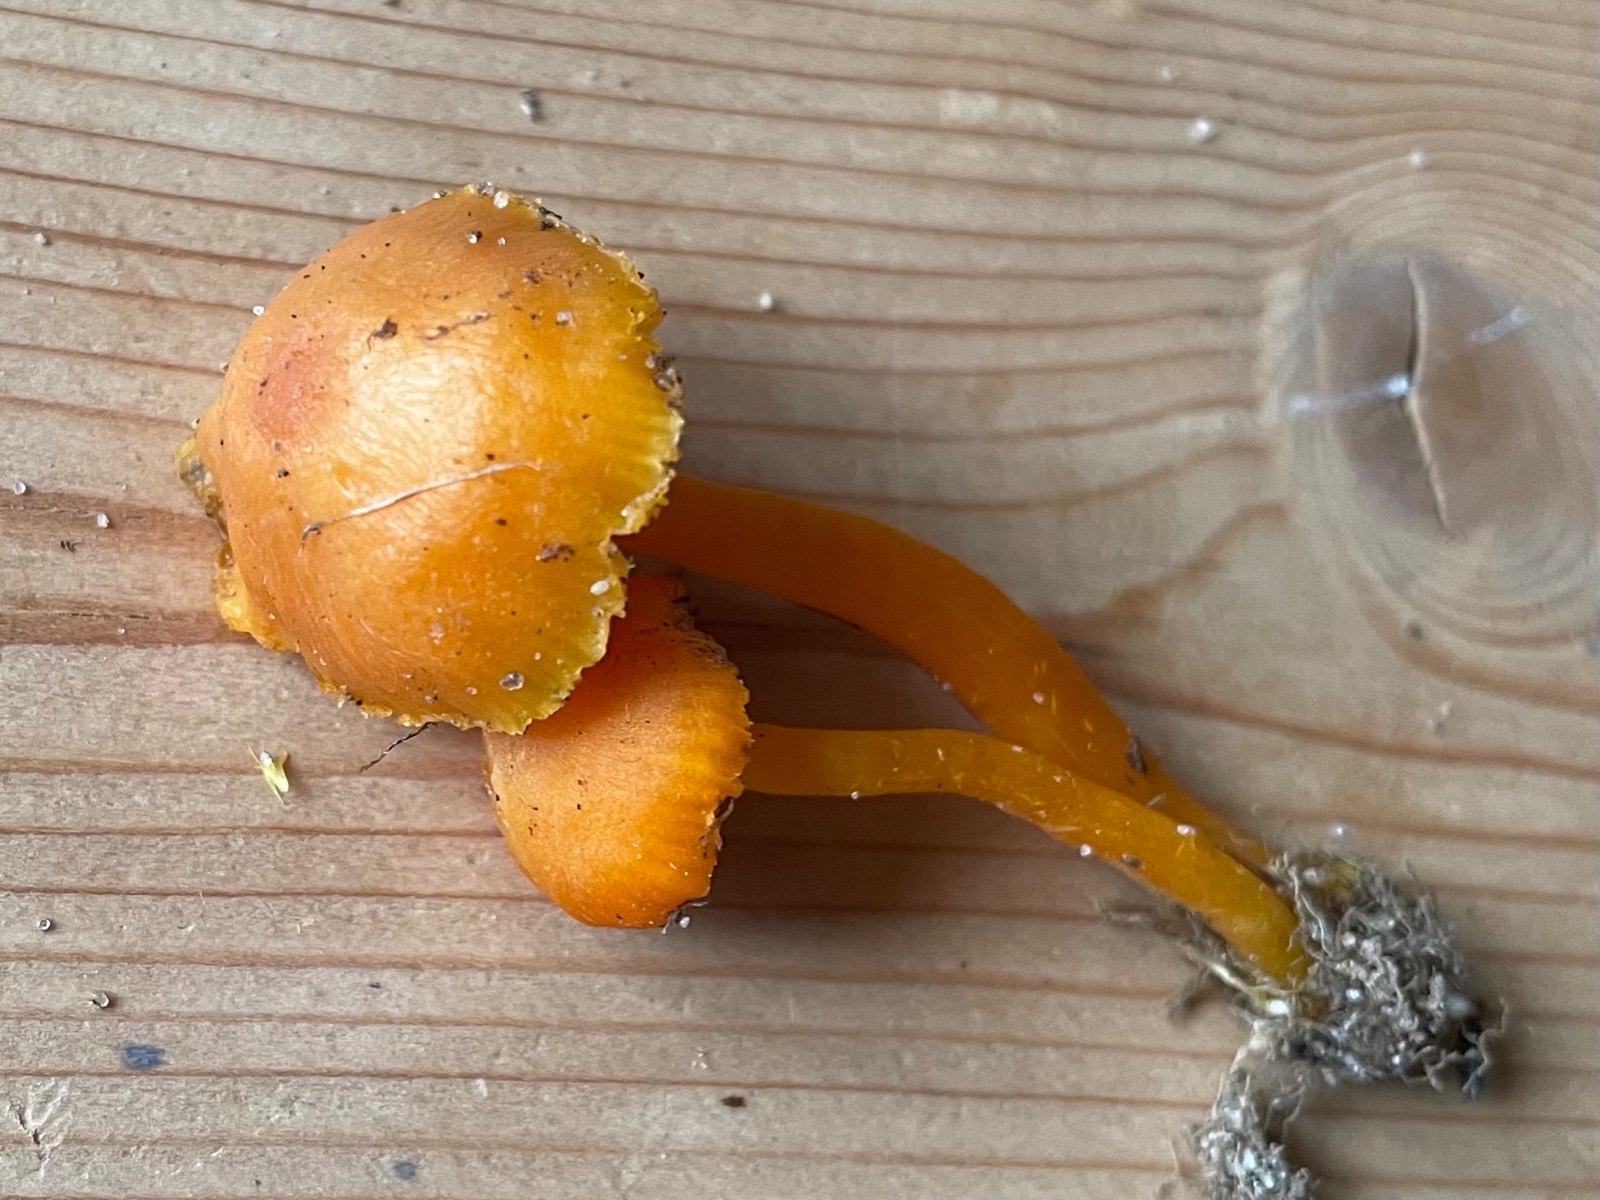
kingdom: Fungi
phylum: Basidiomycota
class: Agaricomycetes
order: Agaricales
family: Hygrophoraceae
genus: Hygrocybe
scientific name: Hygrocybe ceracea
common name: voksgul vokshat
